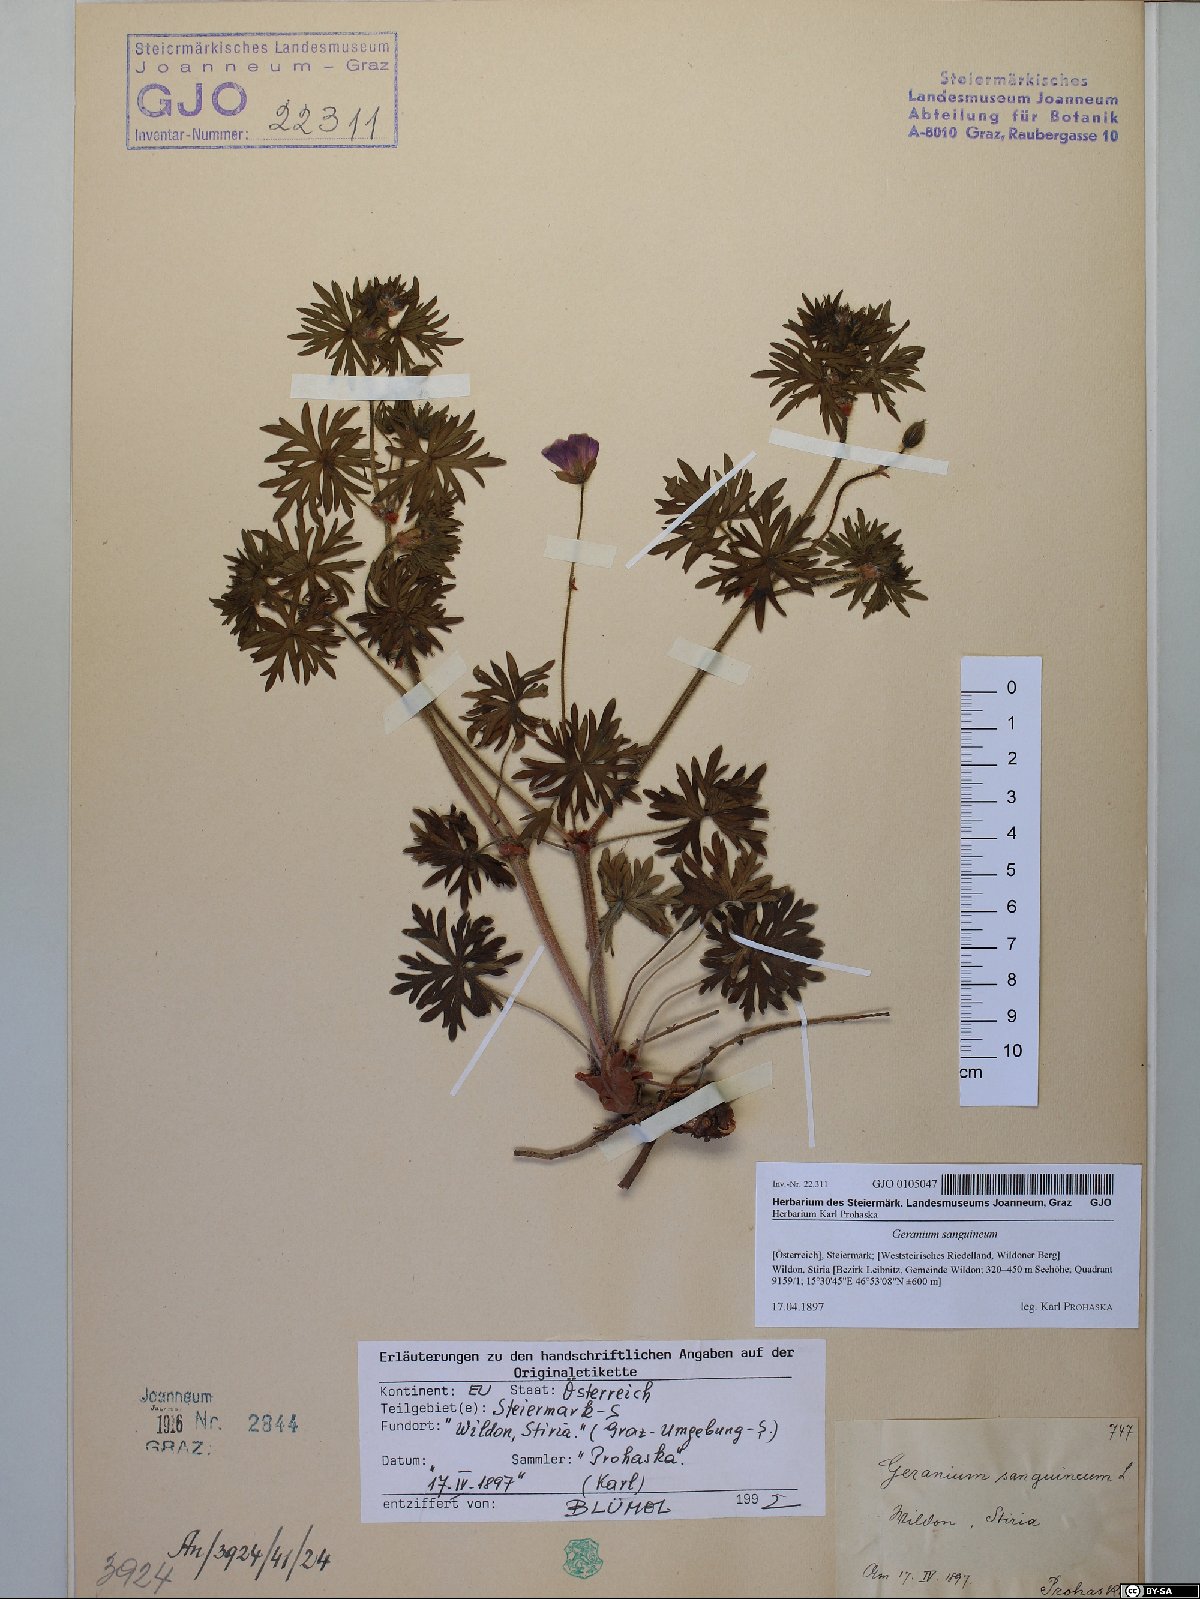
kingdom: Plantae
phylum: Tracheophyta
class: Magnoliopsida
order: Geraniales
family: Geraniaceae
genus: Geranium
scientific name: Geranium sanguineum
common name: Bloody crane's-bill
